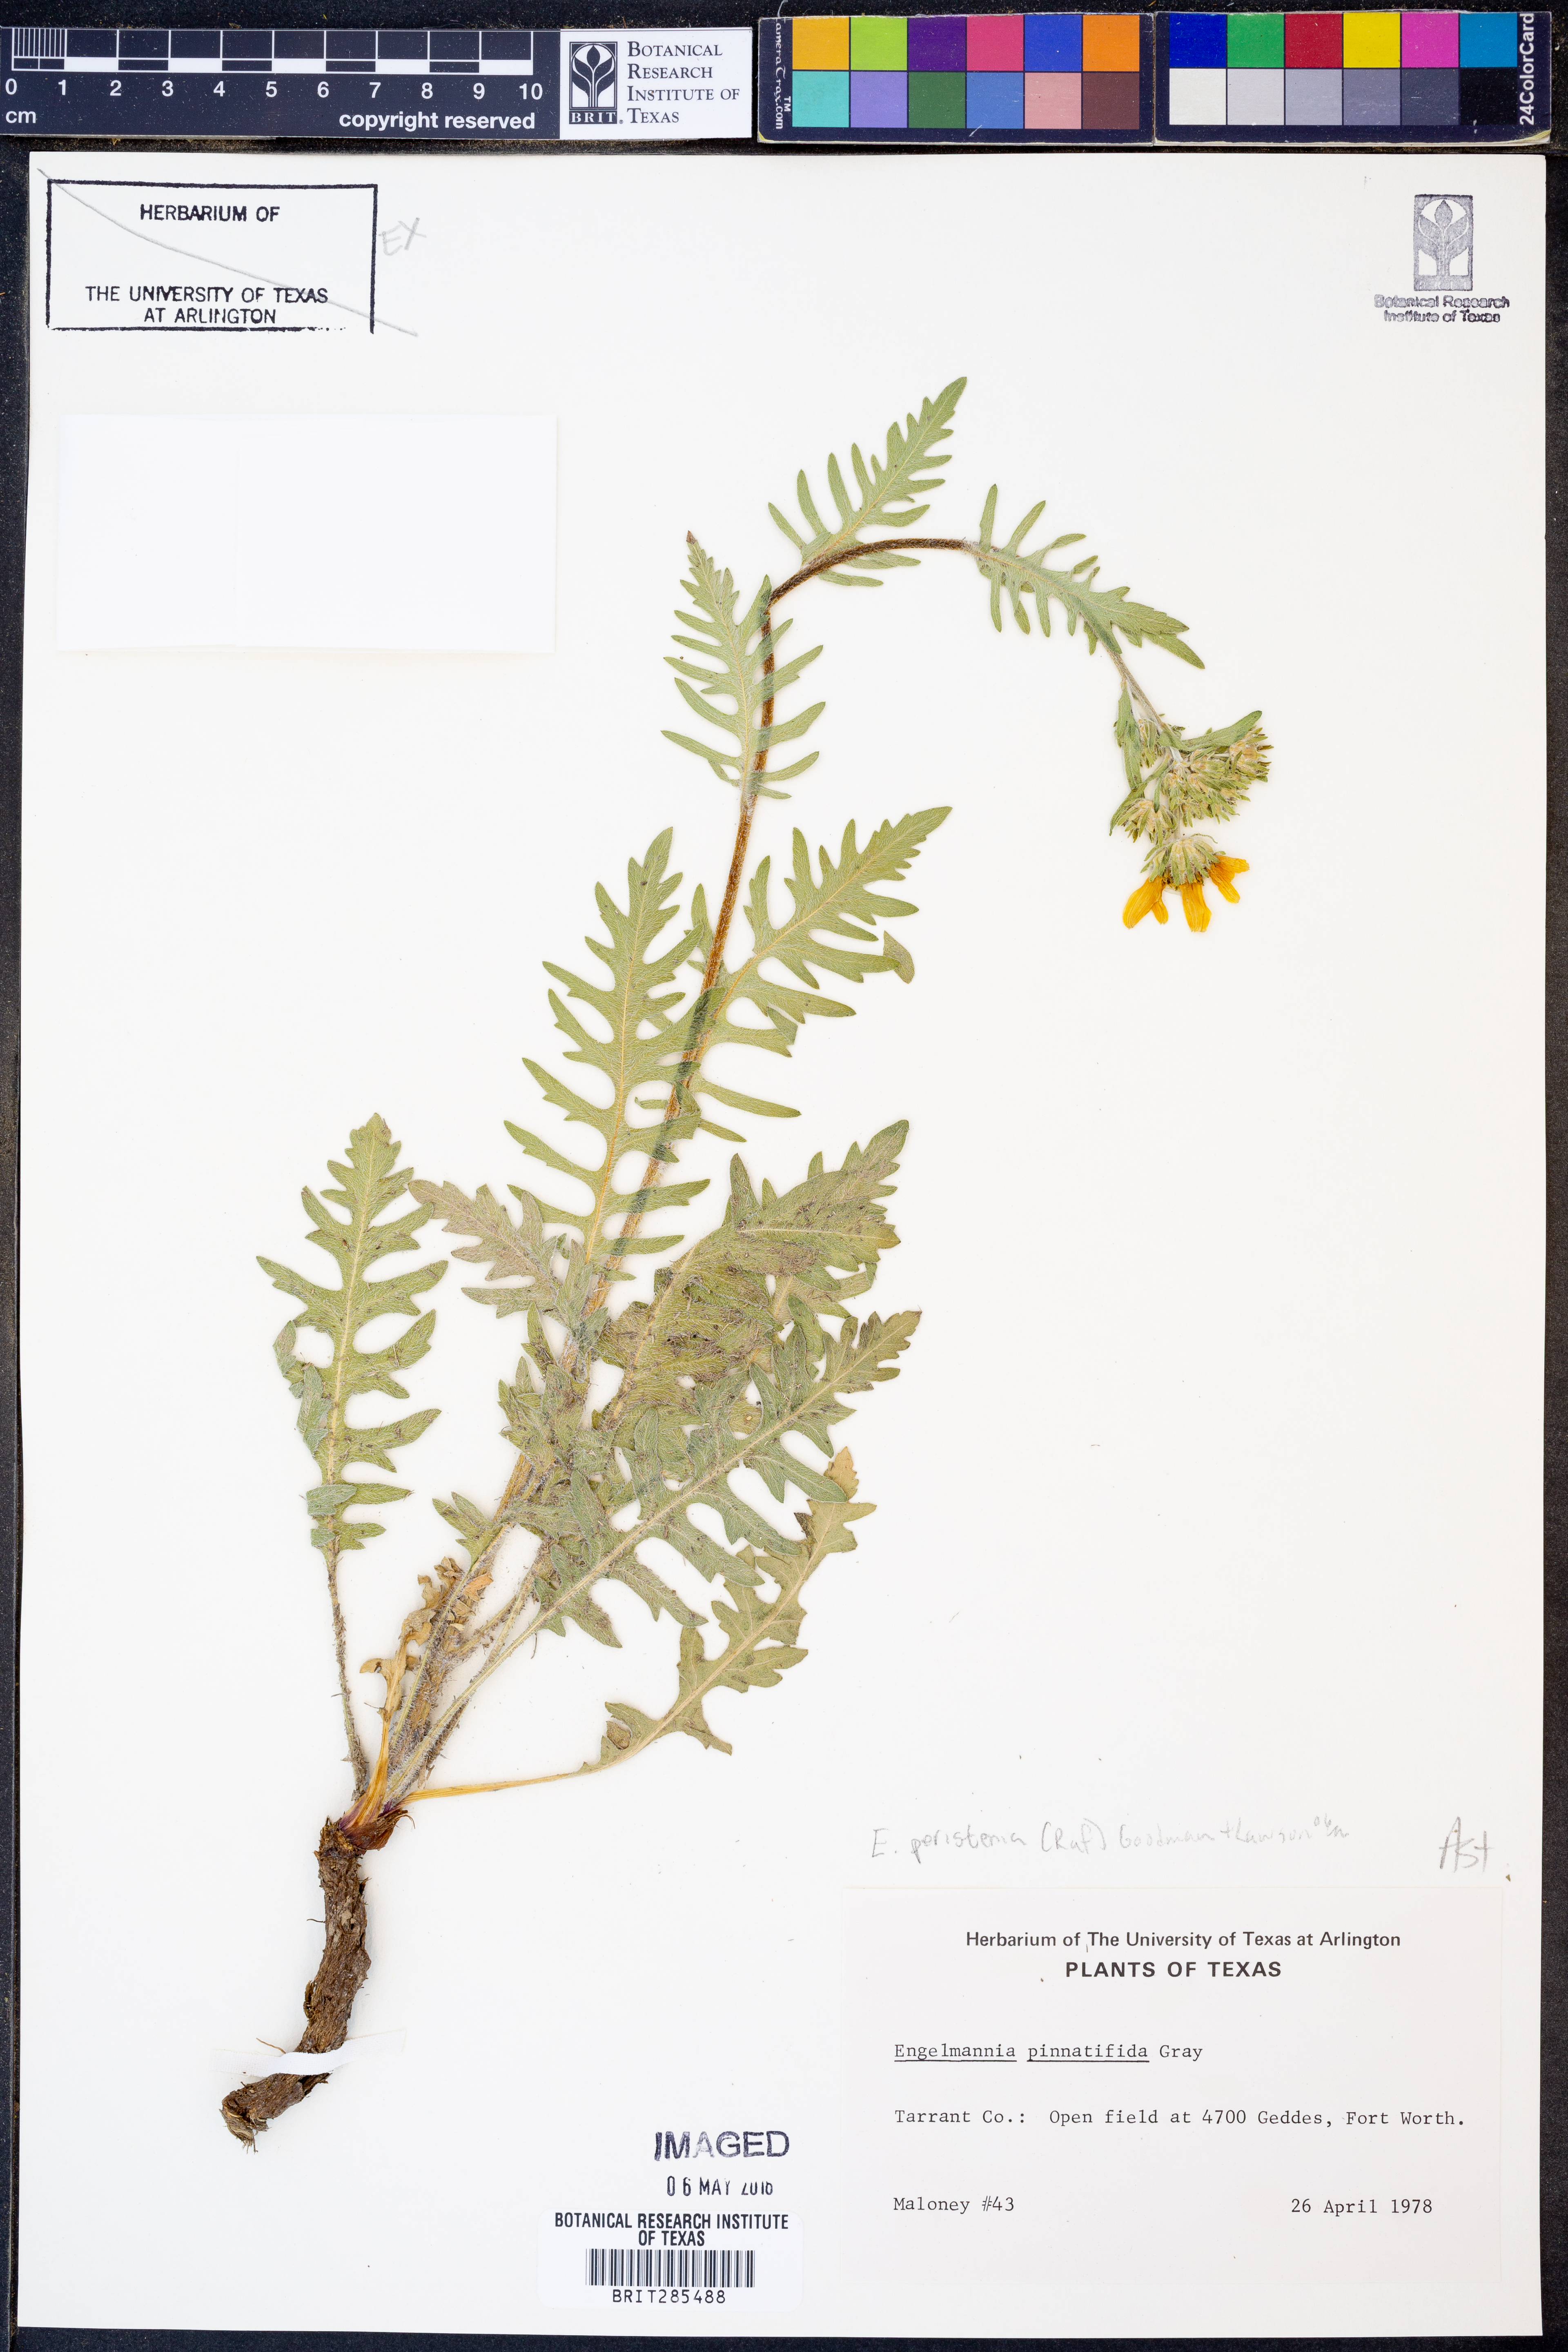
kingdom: Plantae
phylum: Tracheophyta
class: Magnoliopsida
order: Asterales
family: Asteraceae
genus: Engelmannia
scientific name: Engelmannia peristenia
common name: Engelmann's daisy
